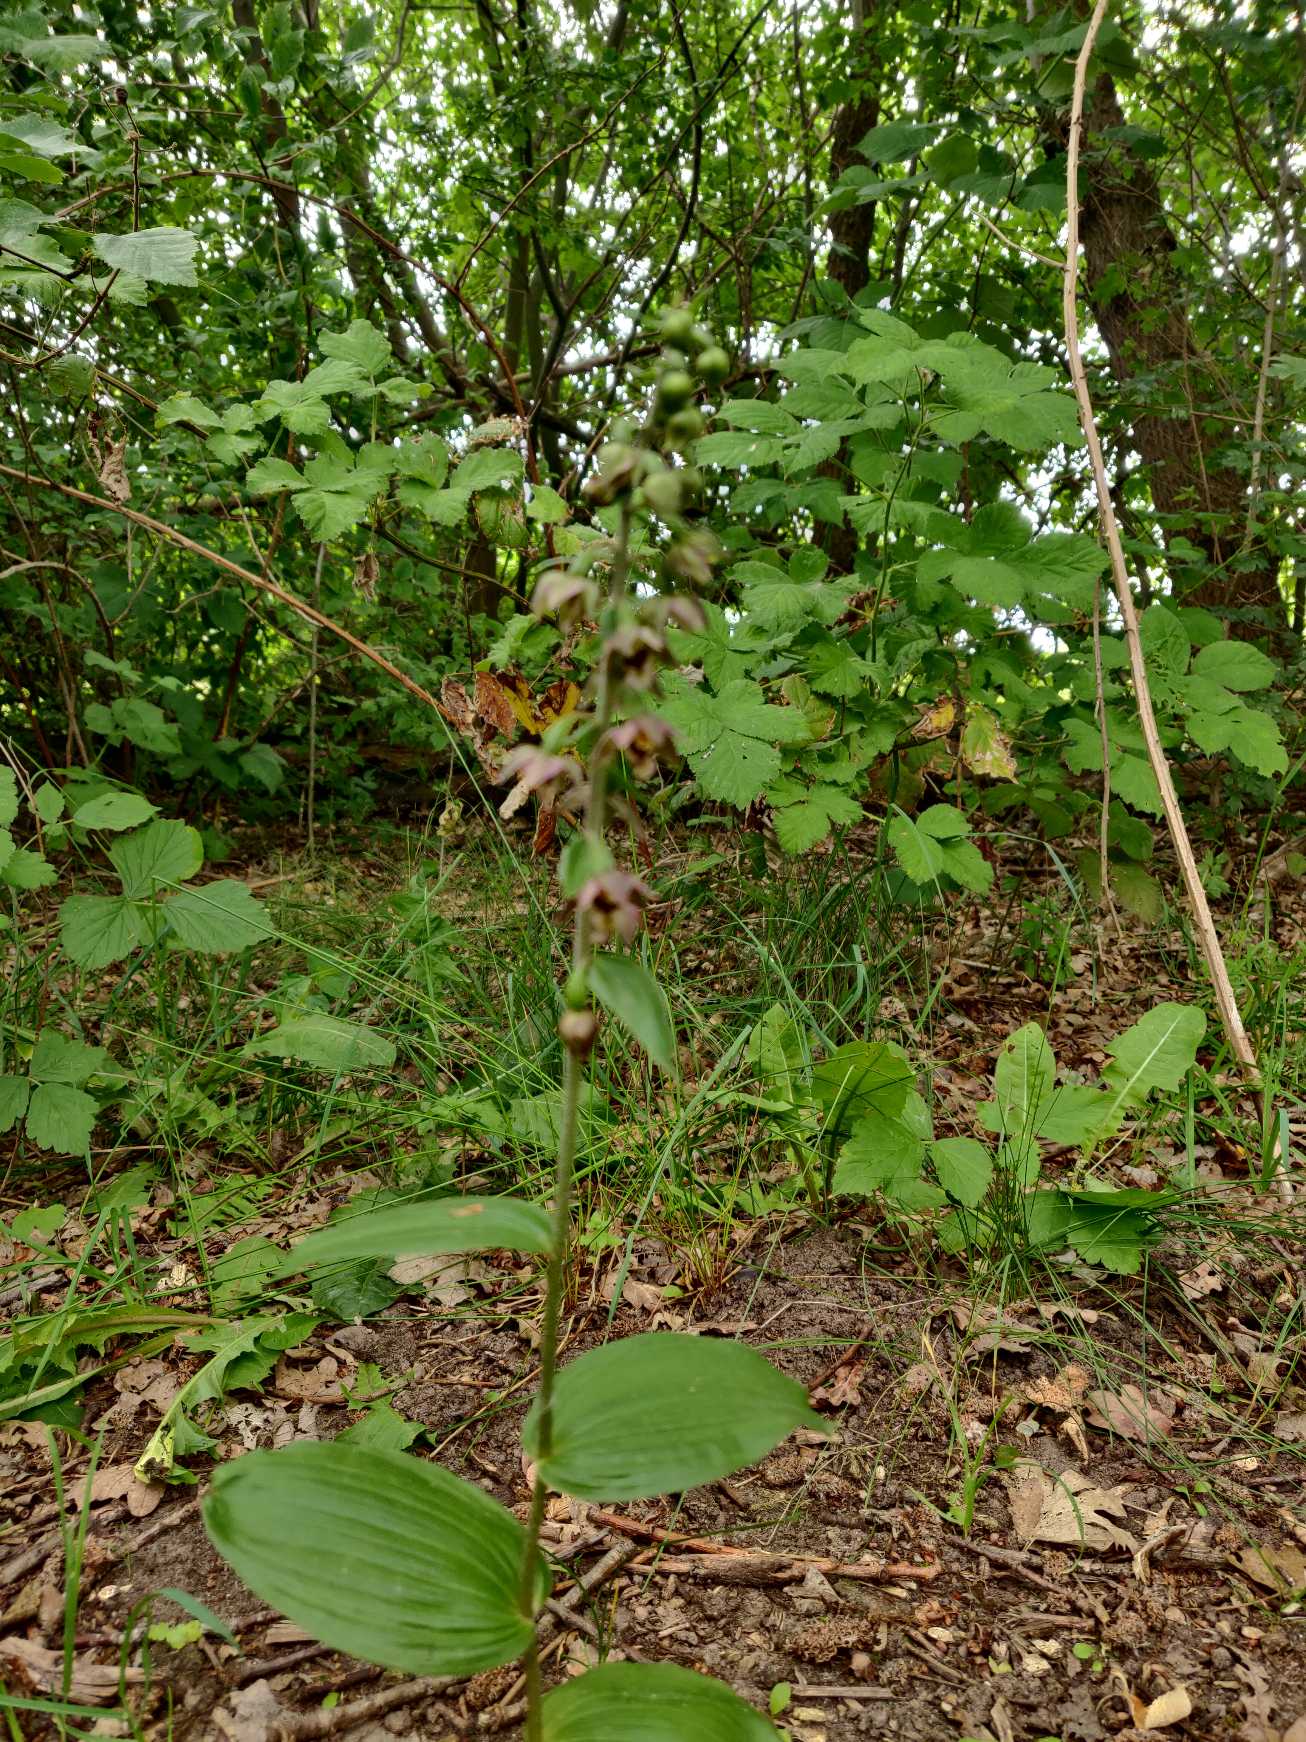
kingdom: Plantae
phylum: Tracheophyta
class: Liliopsida
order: Asparagales
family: Orchidaceae
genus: Epipactis
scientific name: Epipactis helleborine
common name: Skov-hullæbe
